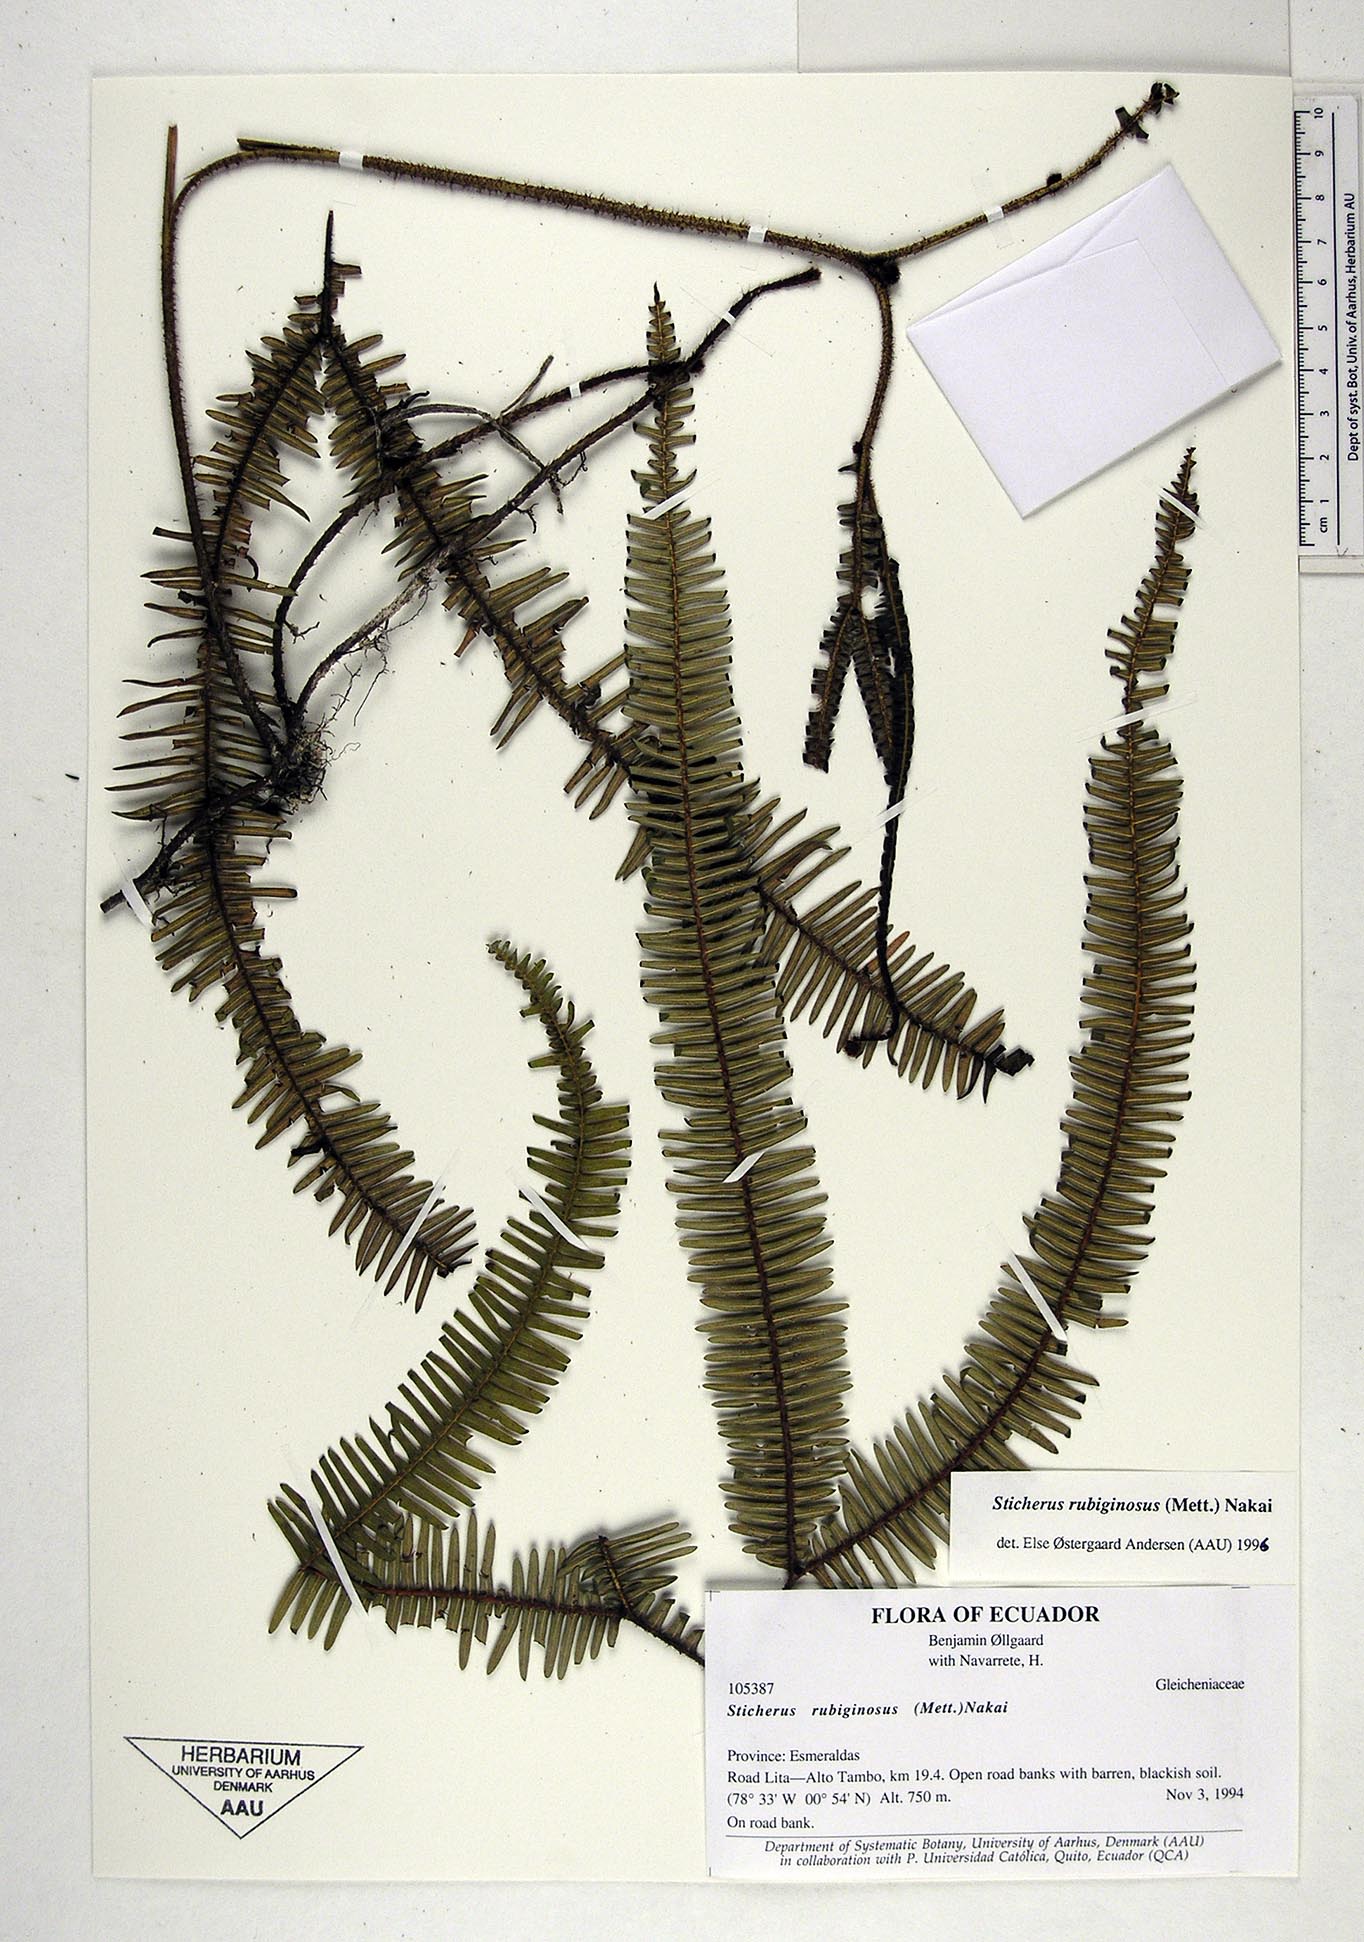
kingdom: Plantae
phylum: Tracheophyta
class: Polypodiopsida
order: Gleicheniales
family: Gleicheniaceae
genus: Sticherus
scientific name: Sticherus rubiginosus
